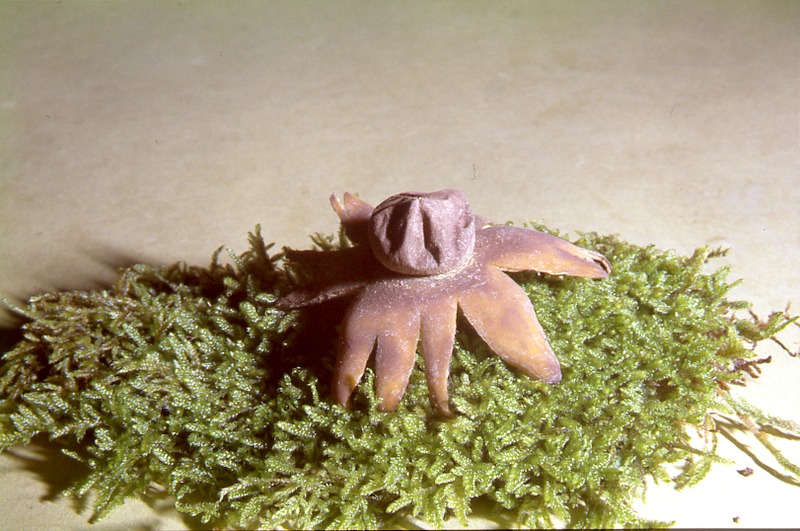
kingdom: Fungi
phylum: Basidiomycota
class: Agaricomycetes
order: Boletales
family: Diplocystidiaceae
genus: Astraeus
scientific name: Astraeus hygrometricus
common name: Barometer earthstar
